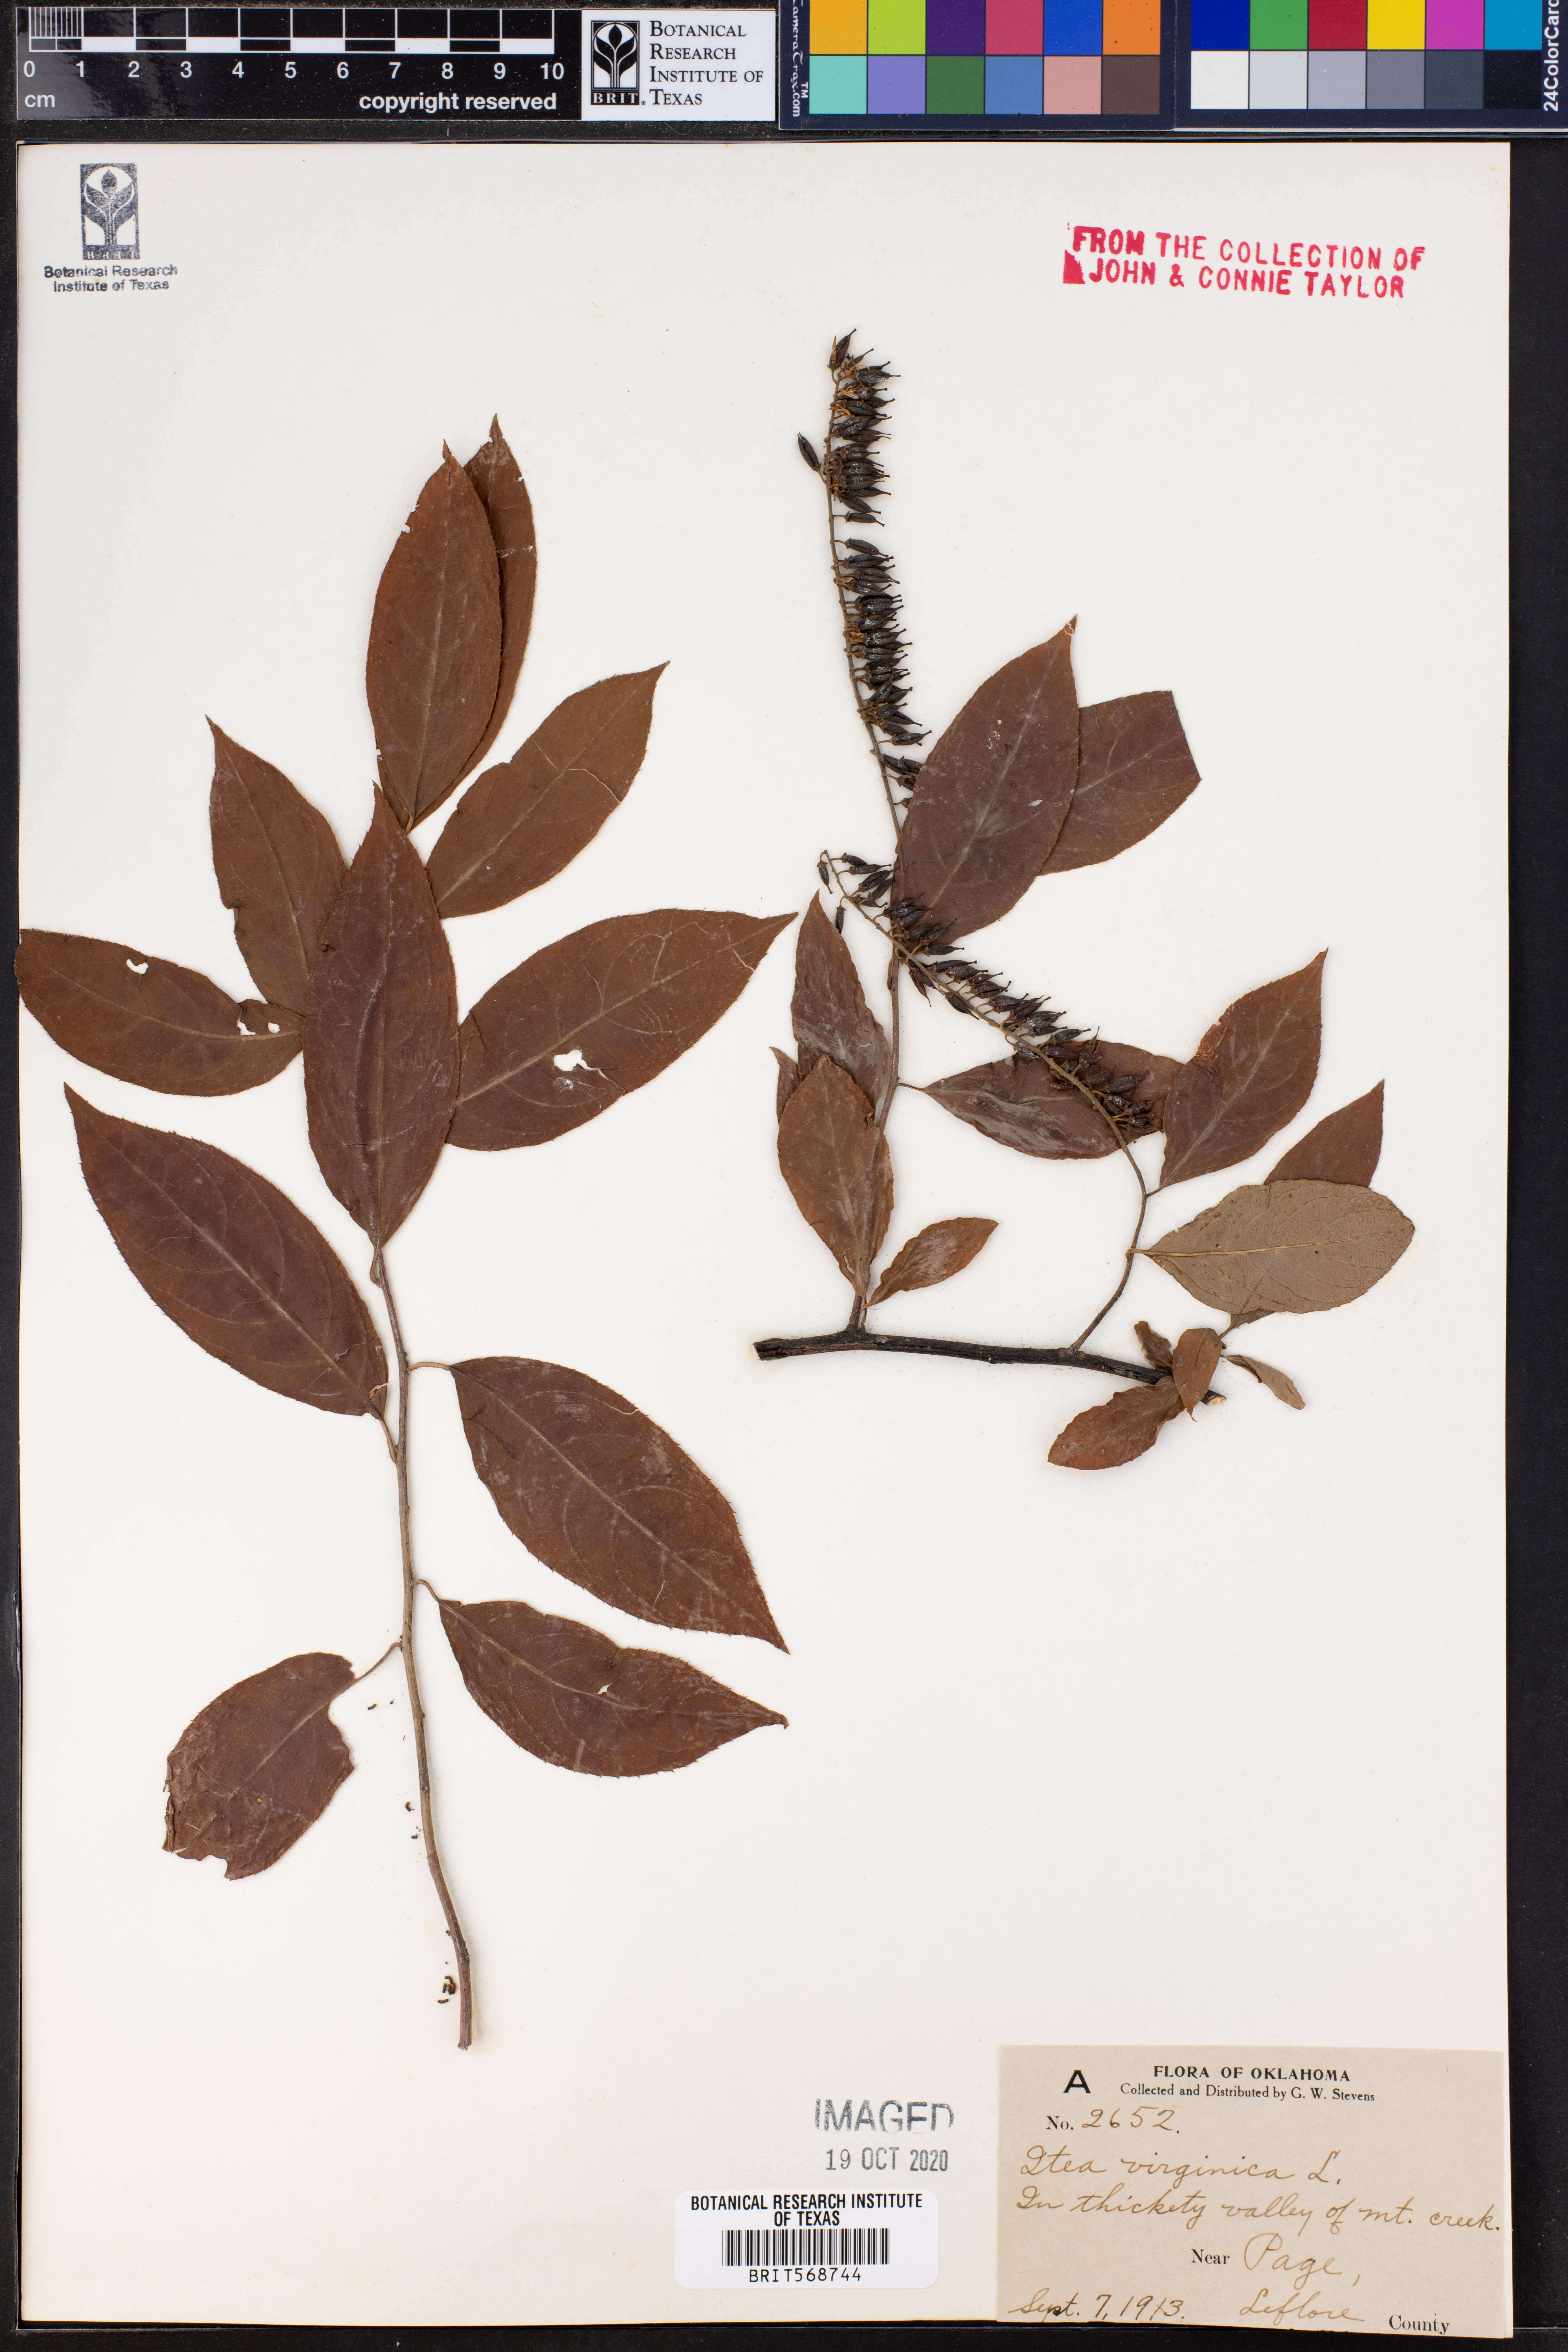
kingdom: Plantae
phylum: Tracheophyta
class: Magnoliopsida
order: Saxifragales
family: Iteaceae
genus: Itea
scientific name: Itea virginica
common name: Sweetspire
